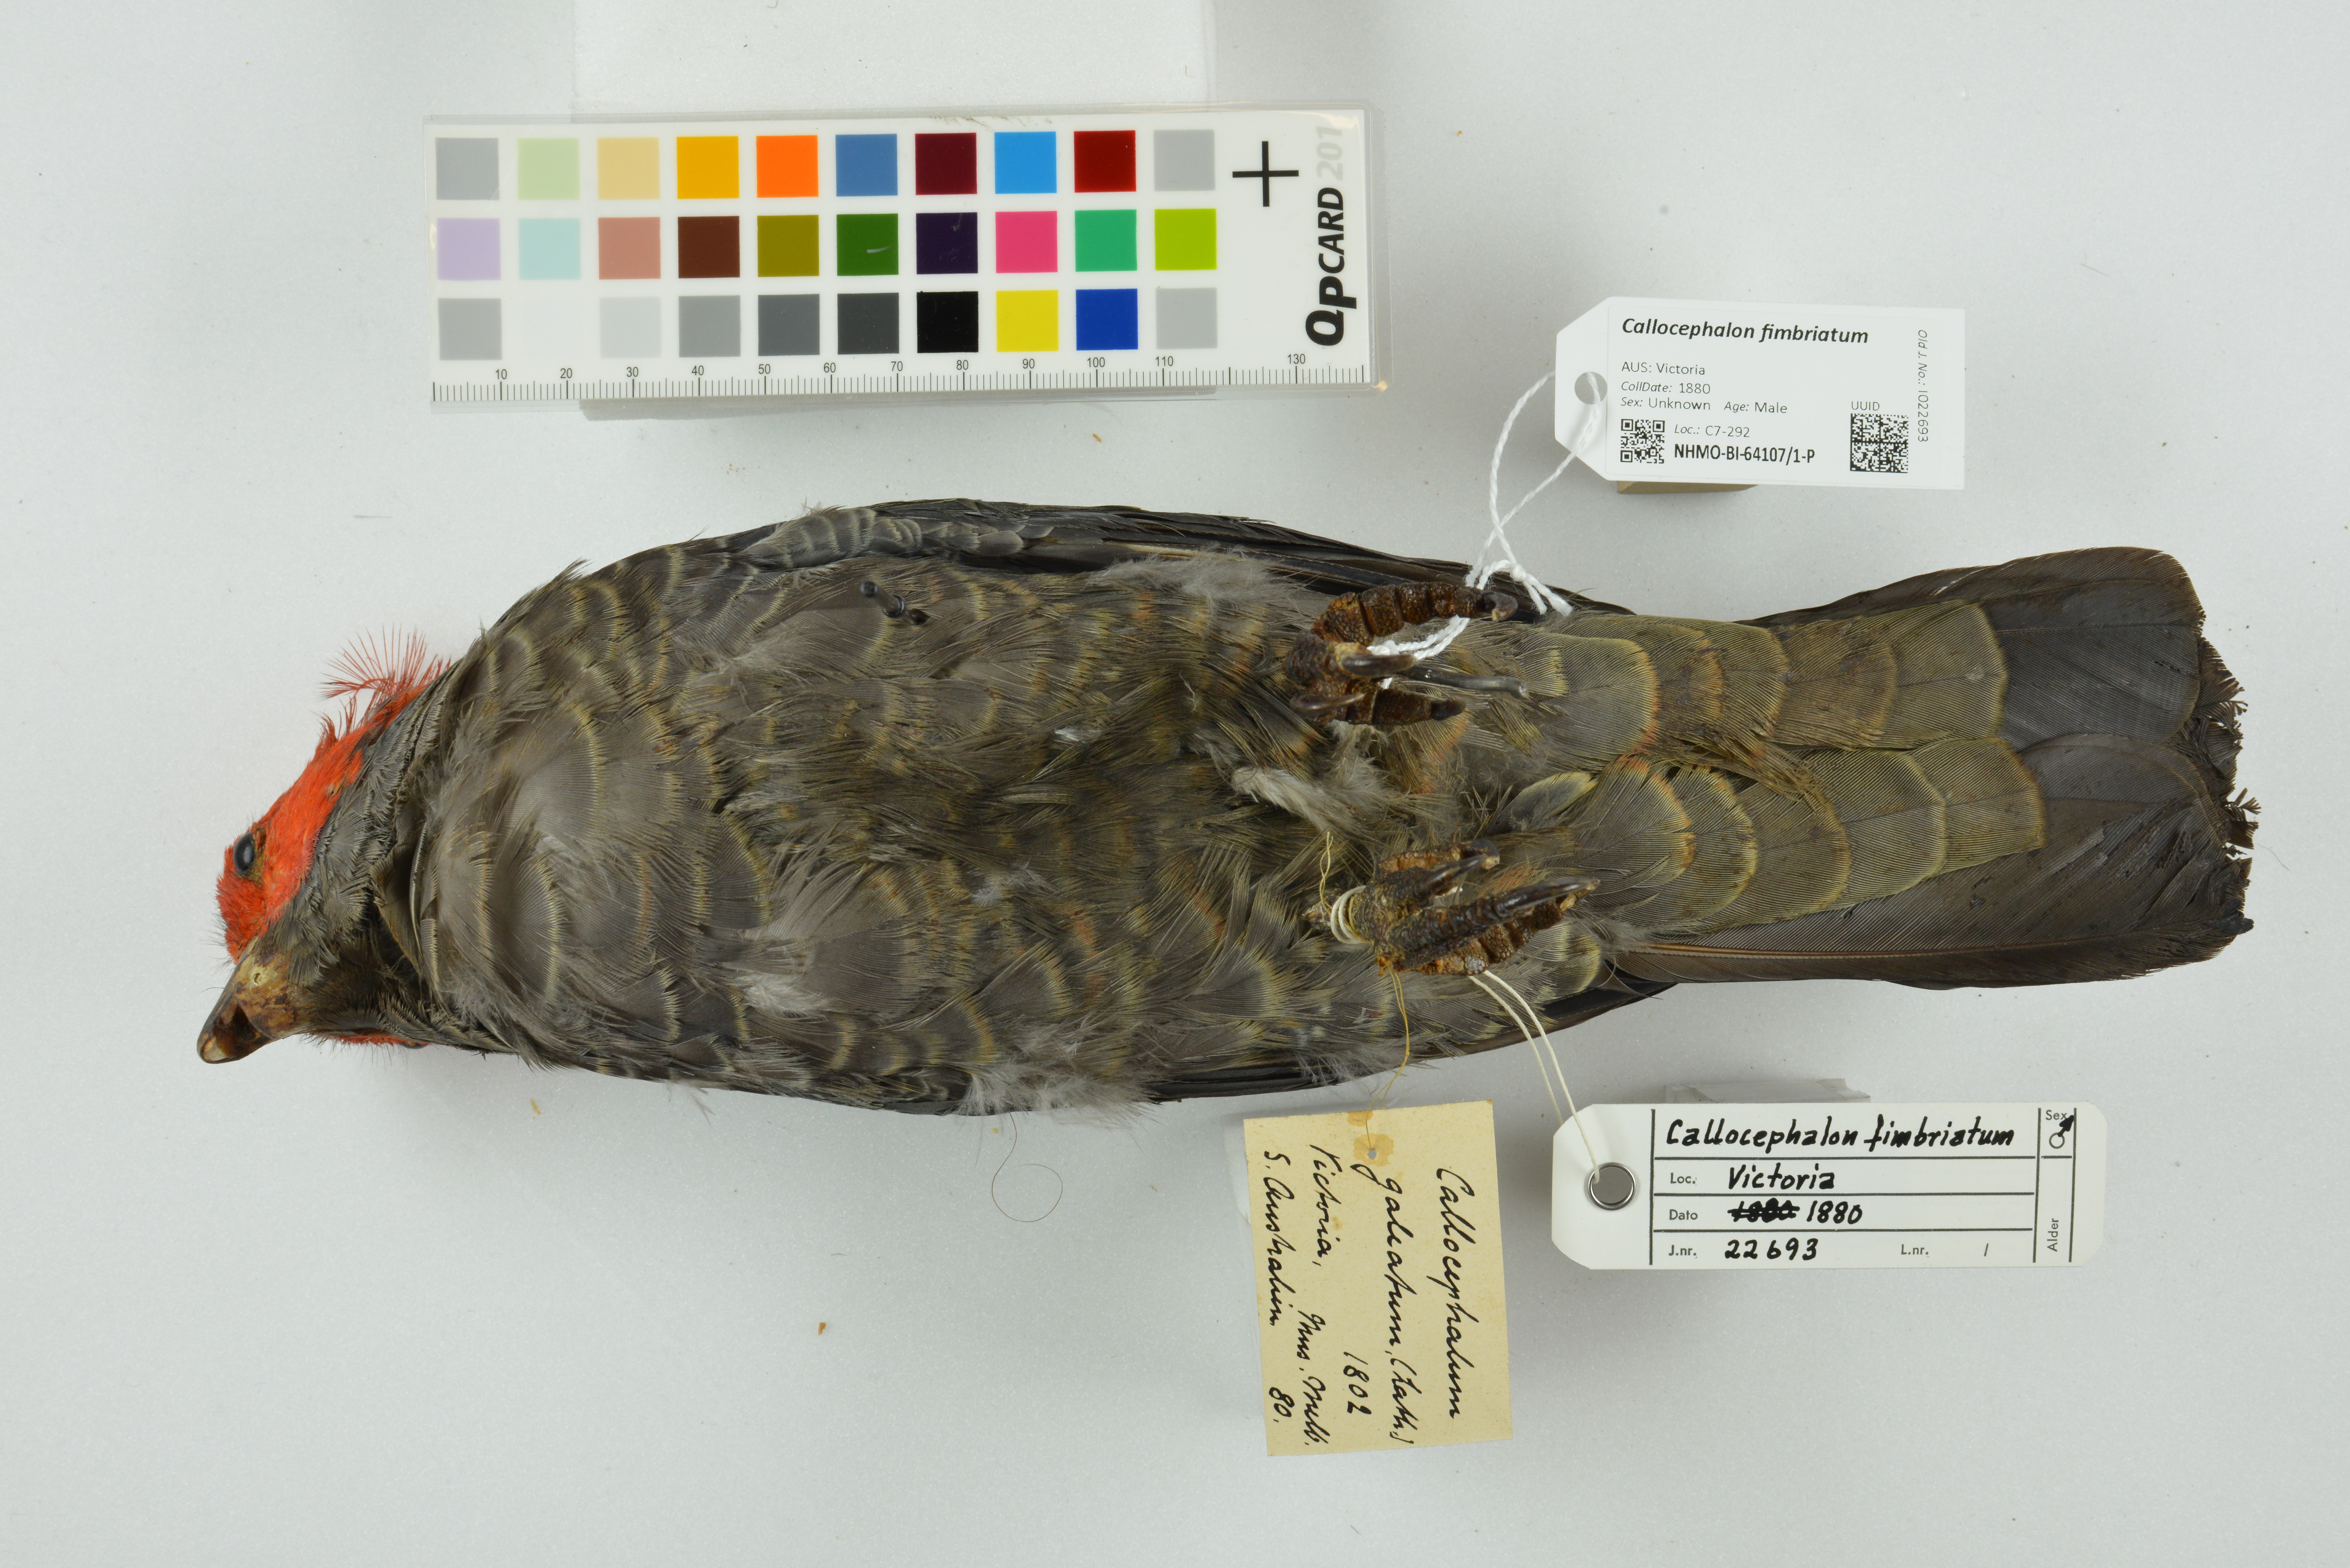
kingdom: Animalia
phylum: Chordata
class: Aves
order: Psittaciformes
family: Psittacidae
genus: Callocephalon
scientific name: Callocephalon fimbriatum
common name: Gang-gang cockatoo
